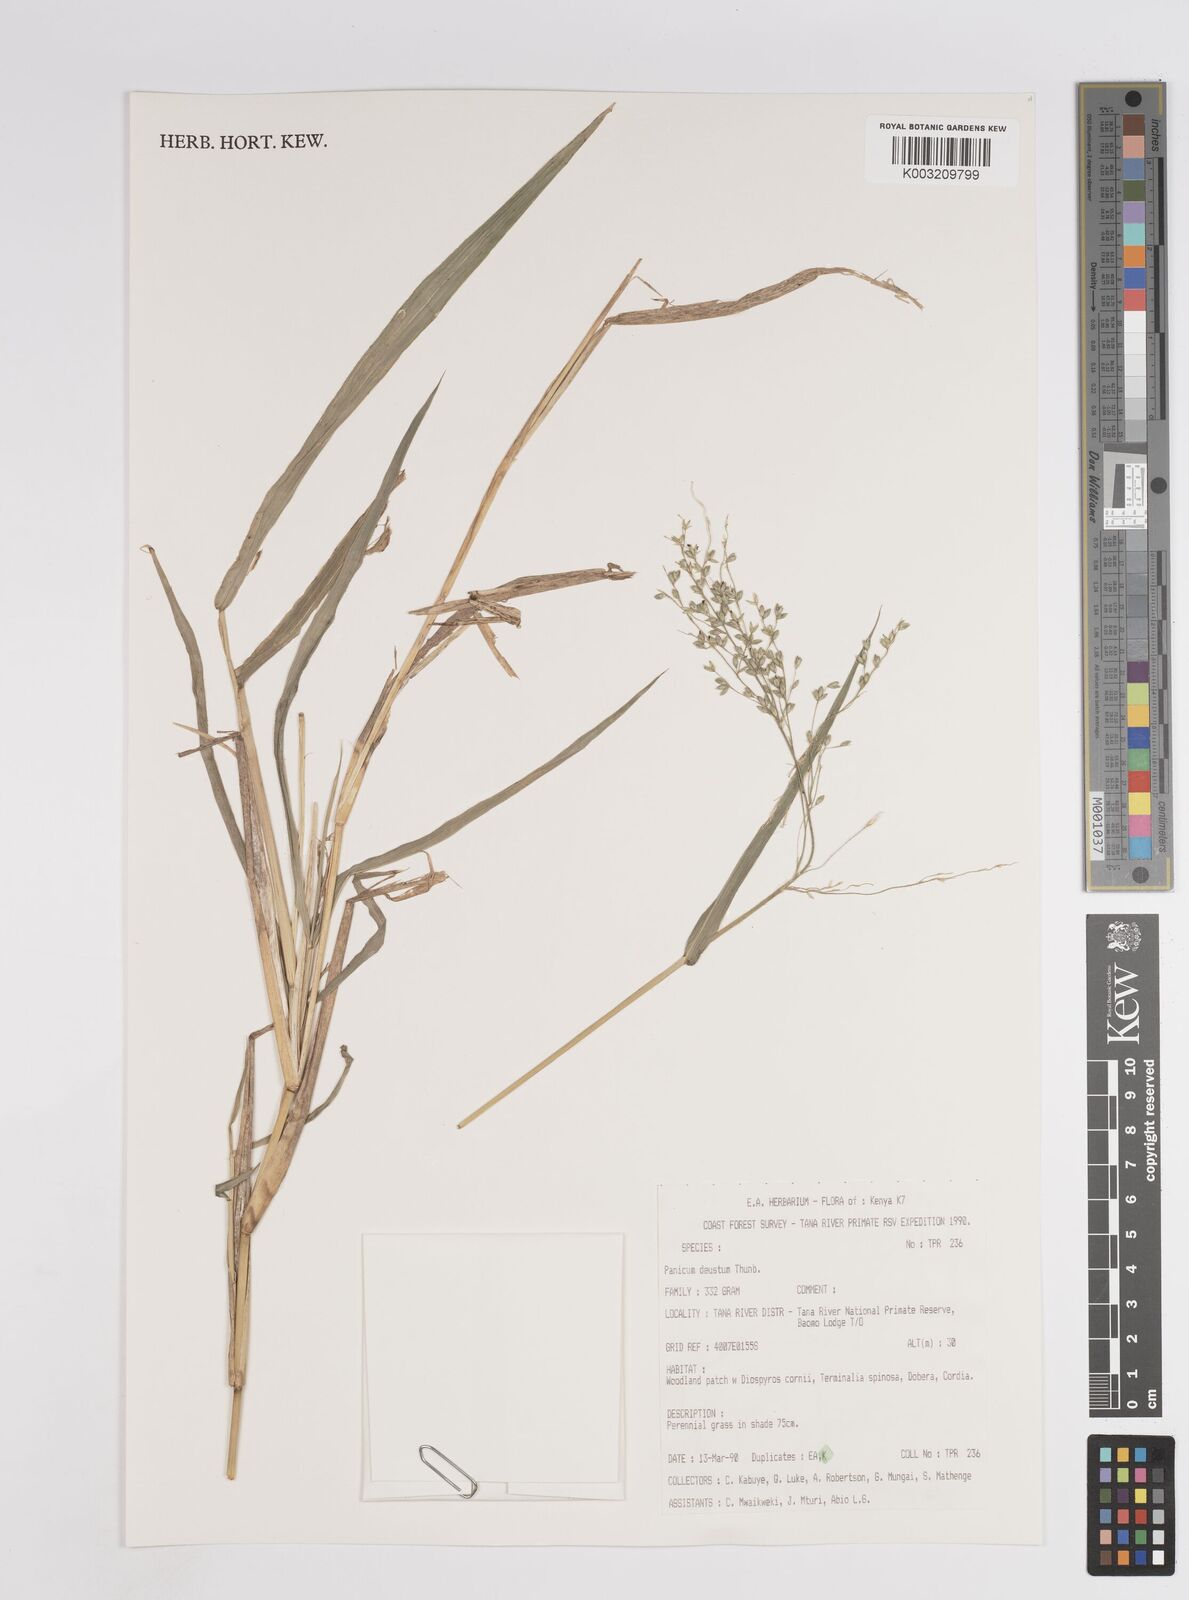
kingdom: Plantae
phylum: Tracheophyta
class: Liliopsida
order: Poales
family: Poaceae
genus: Panicum
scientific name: Panicum deustum
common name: Reed panicum
